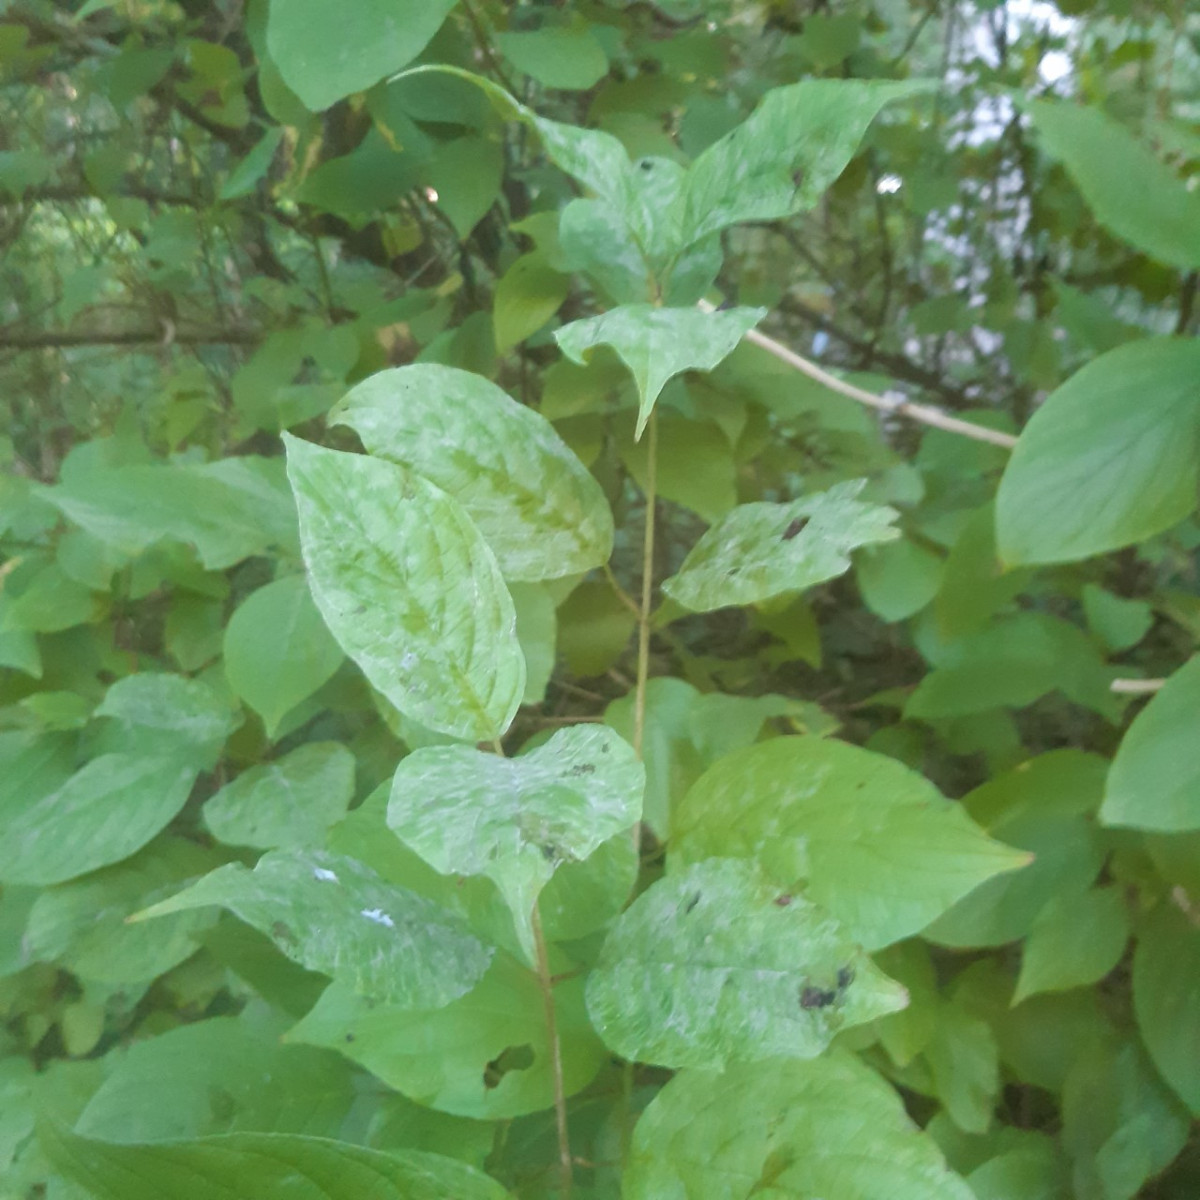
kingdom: Fungi
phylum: Ascomycota
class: Leotiomycetes
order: Helotiales
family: Erysiphaceae
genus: Erysiphe
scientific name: Erysiphe tortilis
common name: kornel-meldug
